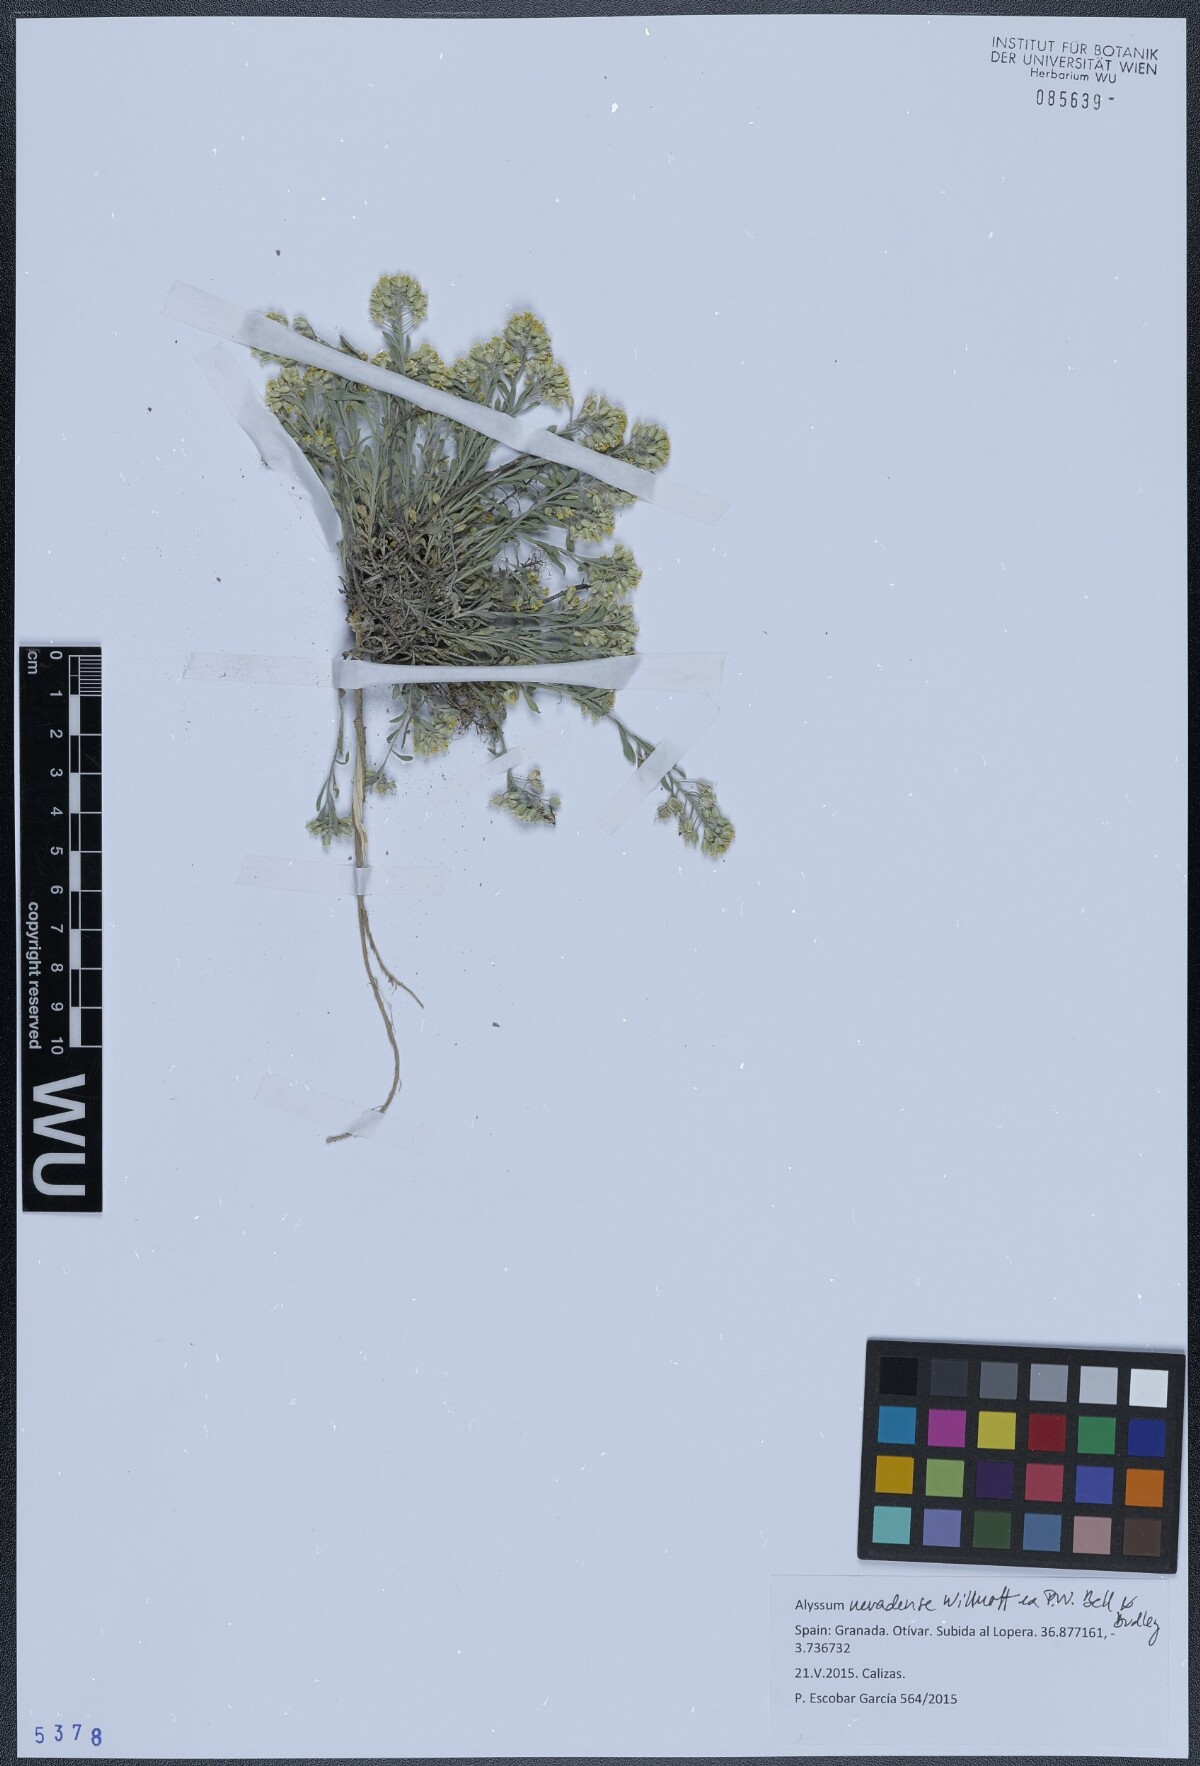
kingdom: Plantae
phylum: Tracheophyta
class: Magnoliopsida
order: Brassicales
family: Brassicaceae
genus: Alyssum
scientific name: Alyssum fastigiatum
